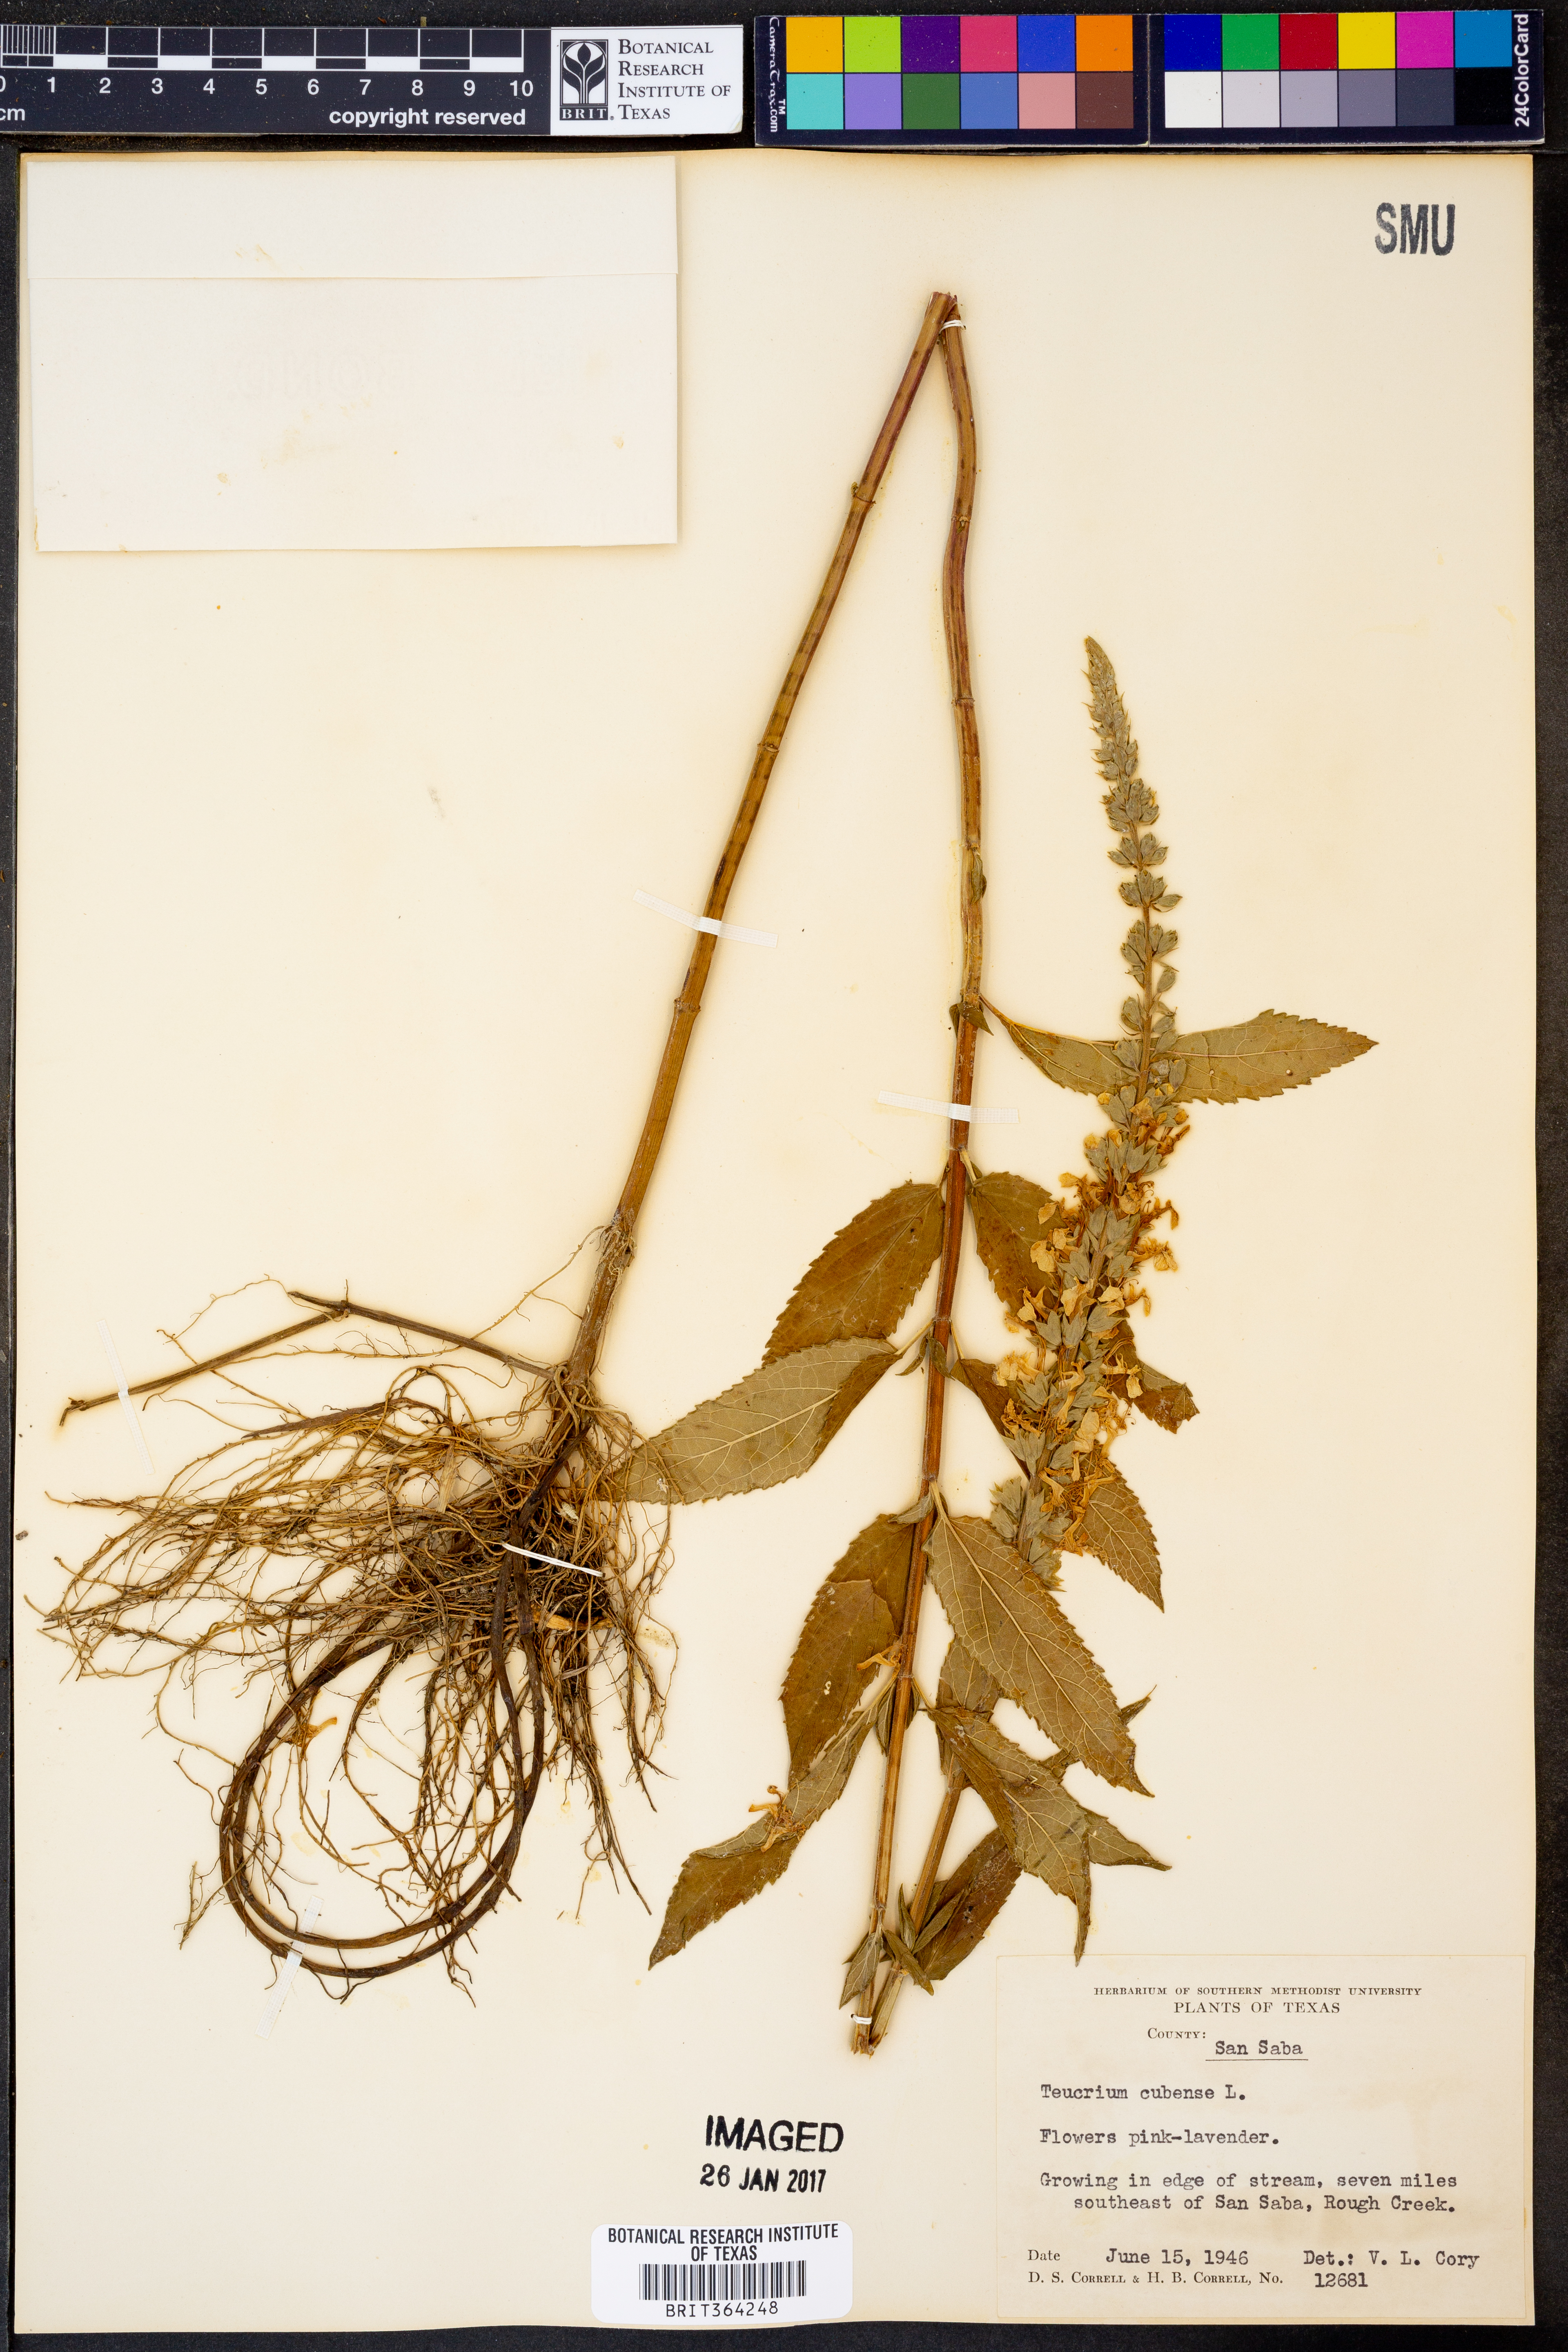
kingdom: Plantae
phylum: Tracheophyta
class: Magnoliopsida
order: Lamiales
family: Lamiaceae
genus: Teucrium
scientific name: Teucrium cubense
